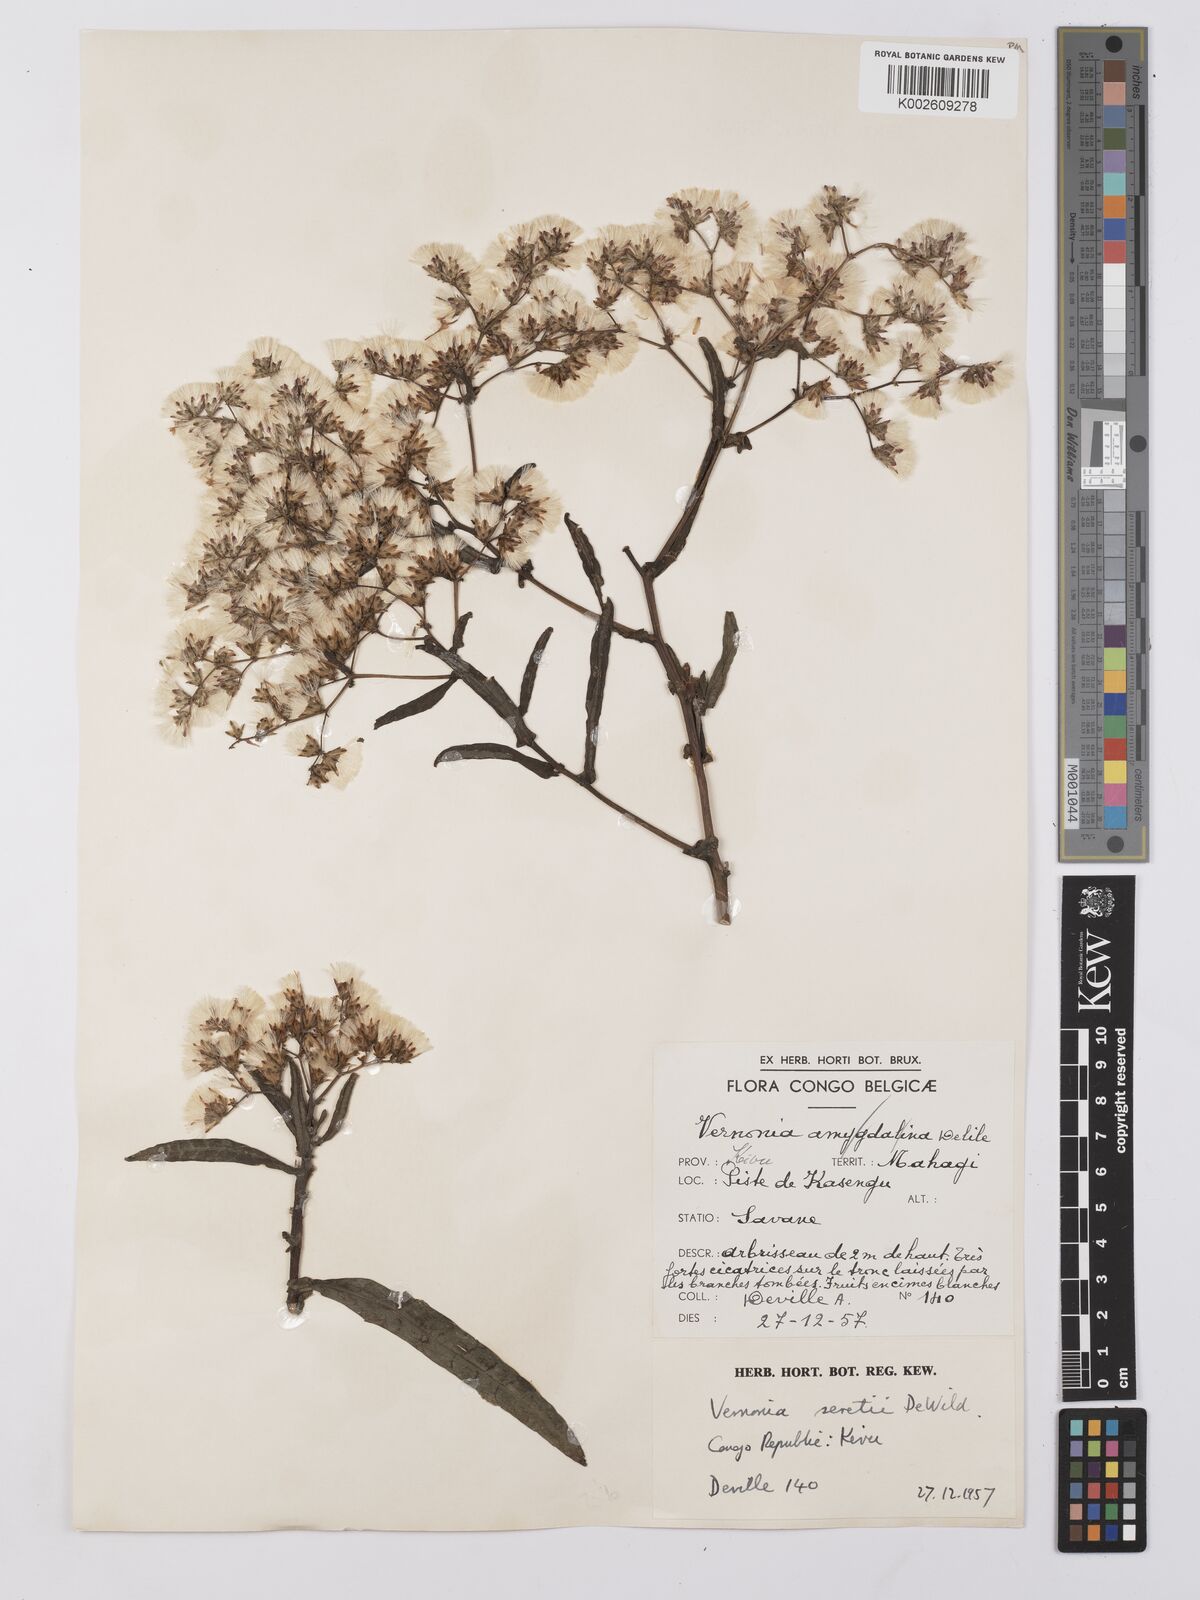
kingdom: Plantae
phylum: Tracheophyta
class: Magnoliopsida
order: Asterales
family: Asteraceae
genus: Gymnanthemum
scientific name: Gymnanthemum theophrastifolium
